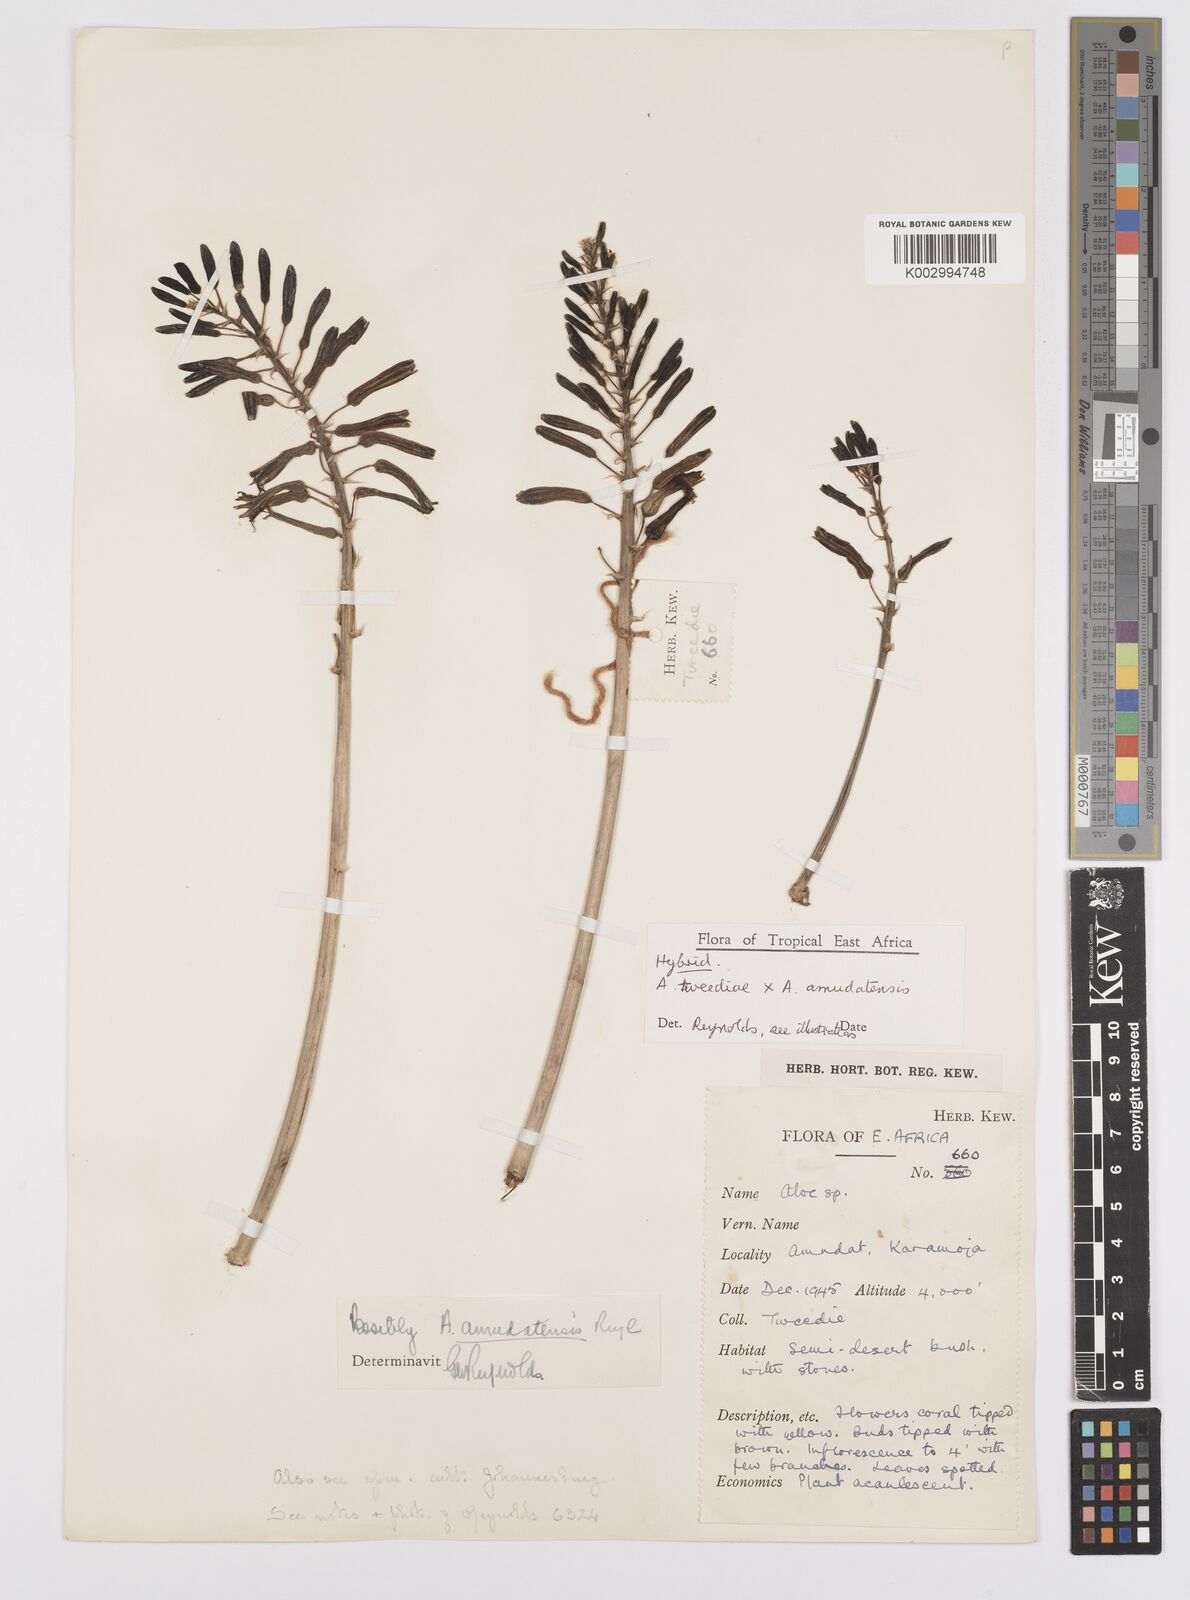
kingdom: Plantae
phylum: Tracheophyta
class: Liliopsida
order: Asparagales
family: Asphodelaceae
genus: Aloe
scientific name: Aloe secundiflora
